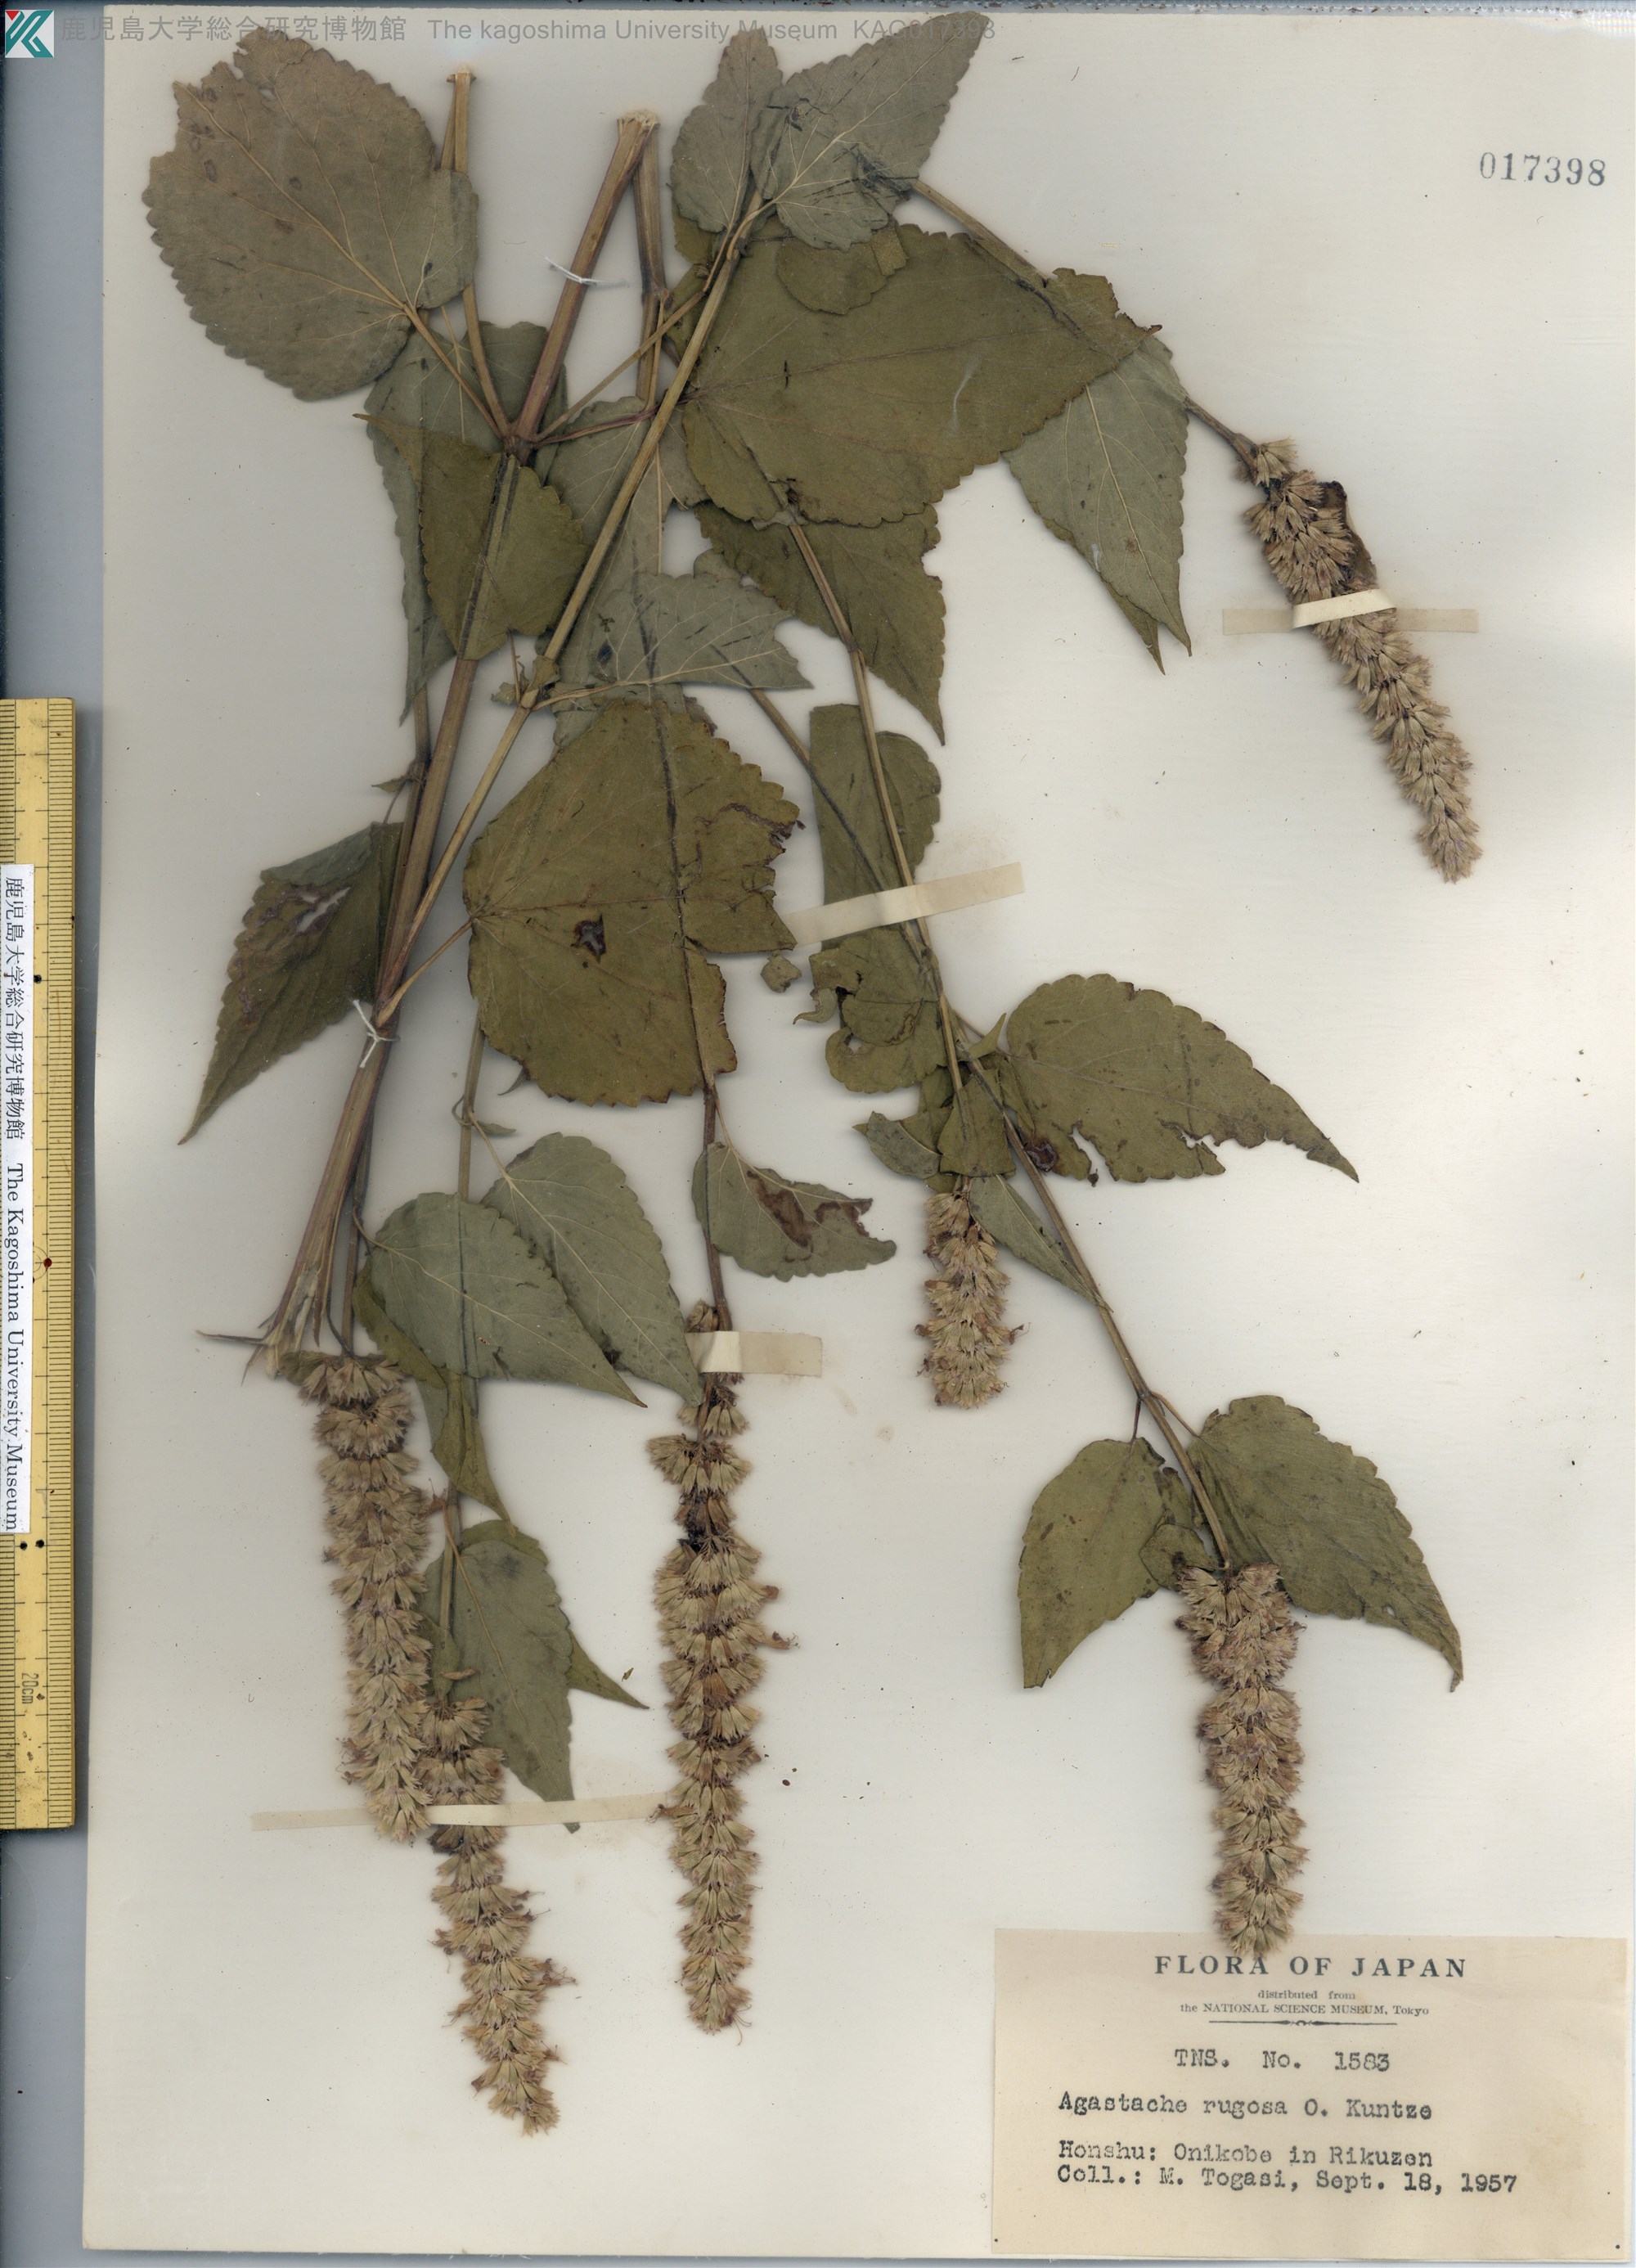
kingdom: Plantae
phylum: Tracheophyta
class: Magnoliopsida
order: Lamiales
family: Lamiaceae
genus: Agastache
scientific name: Agastache rugosa
